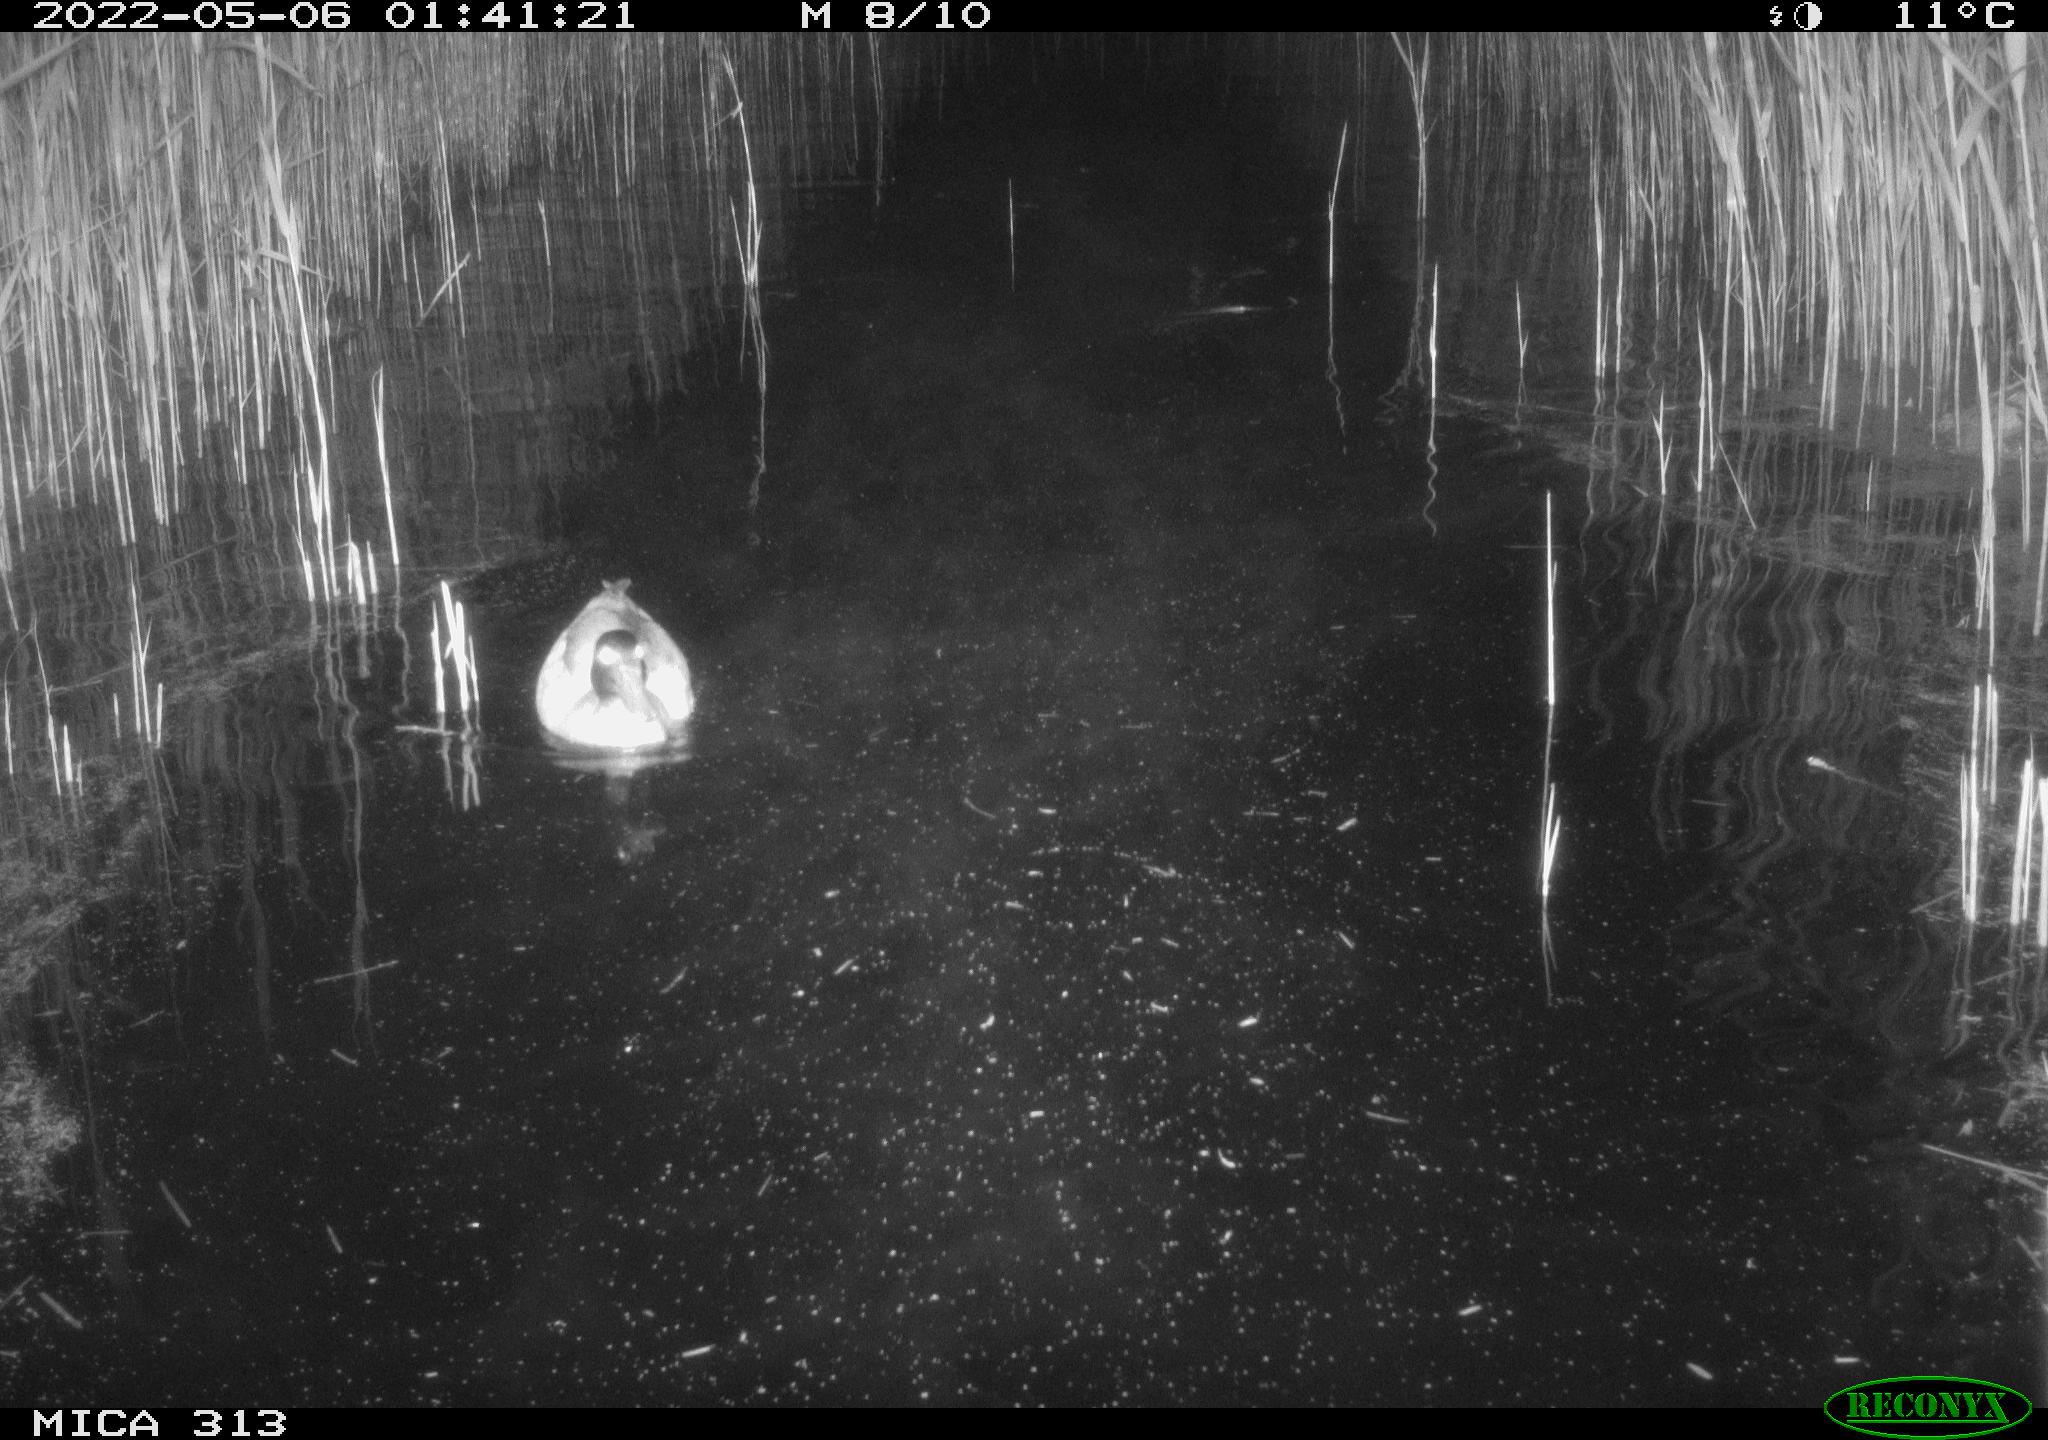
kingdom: Animalia
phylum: Chordata
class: Aves
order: Anseriformes
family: Anatidae
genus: Anas
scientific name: Anas platyrhynchos
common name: Mallard
